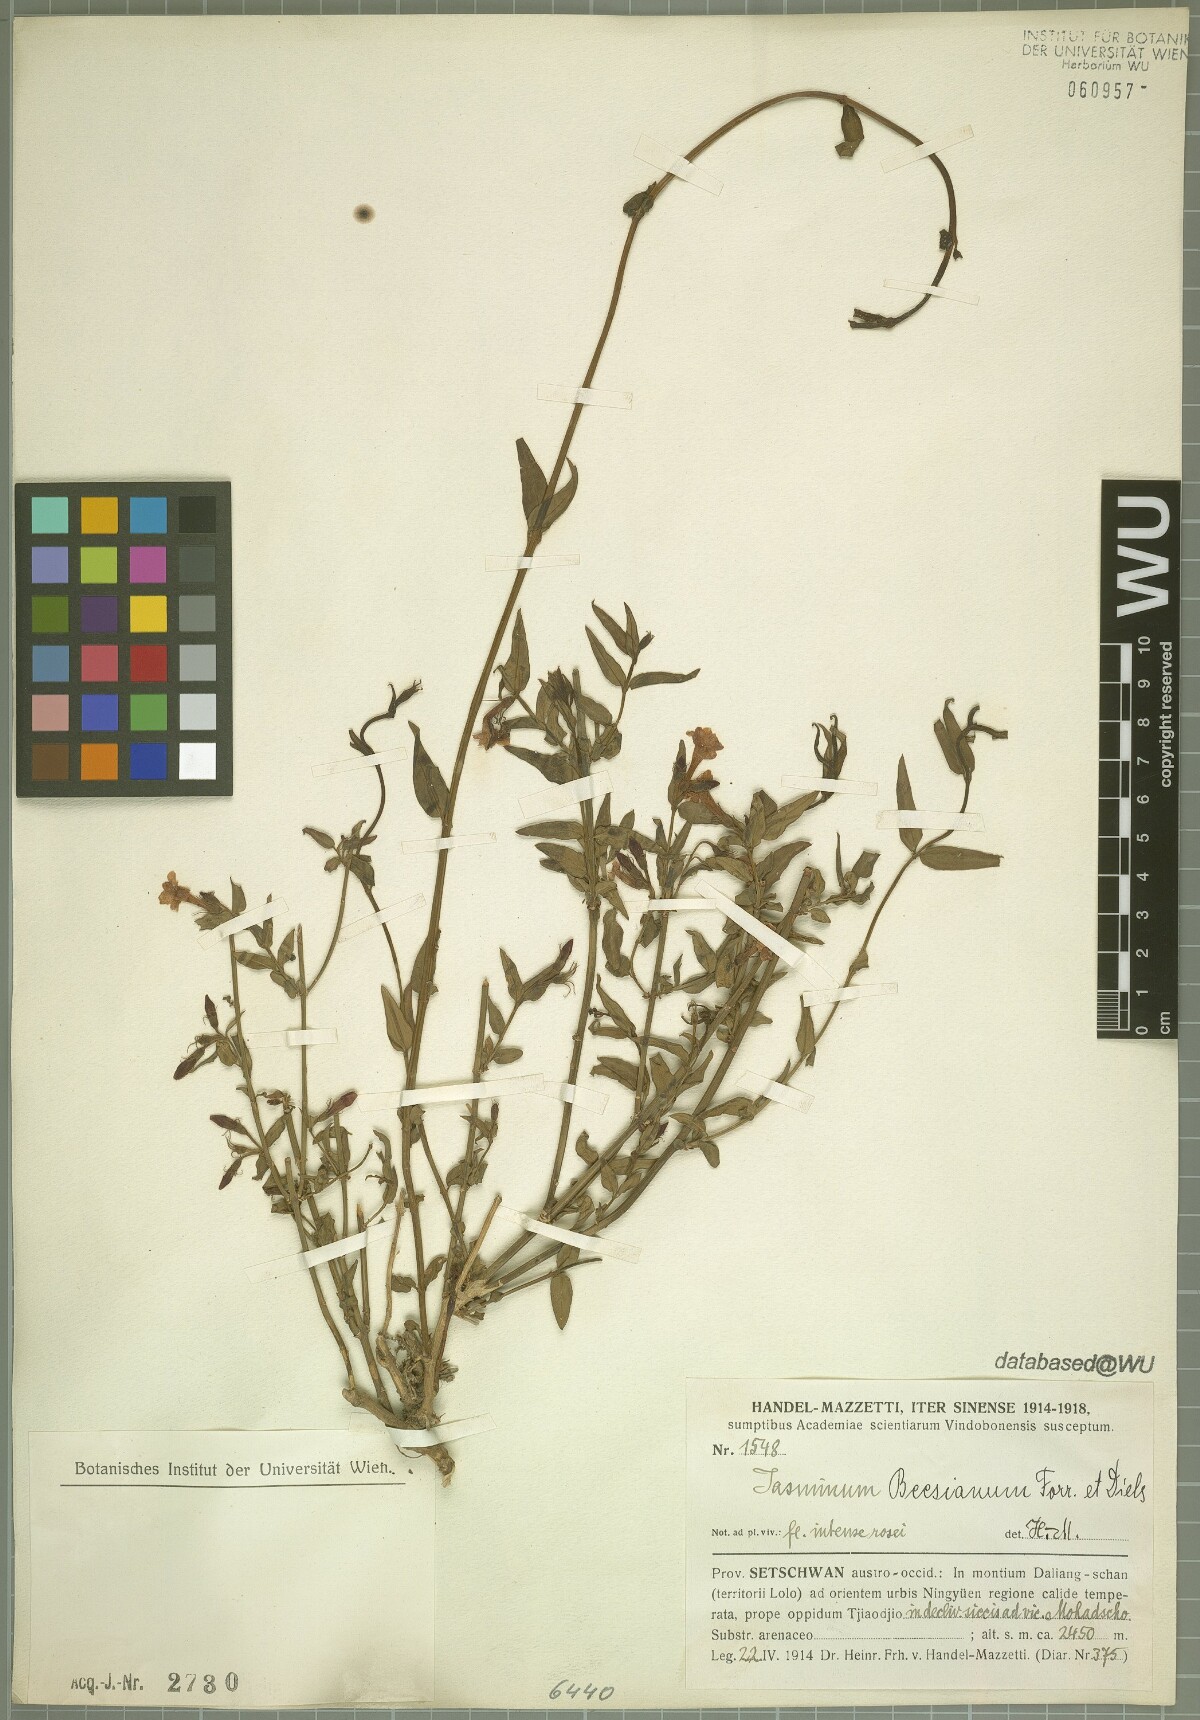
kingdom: Plantae
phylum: Tracheophyta
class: Magnoliopsida
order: Lamiales
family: Oleaceae
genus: Jasminum
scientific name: Jasminum beesianum
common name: Red jasmine
